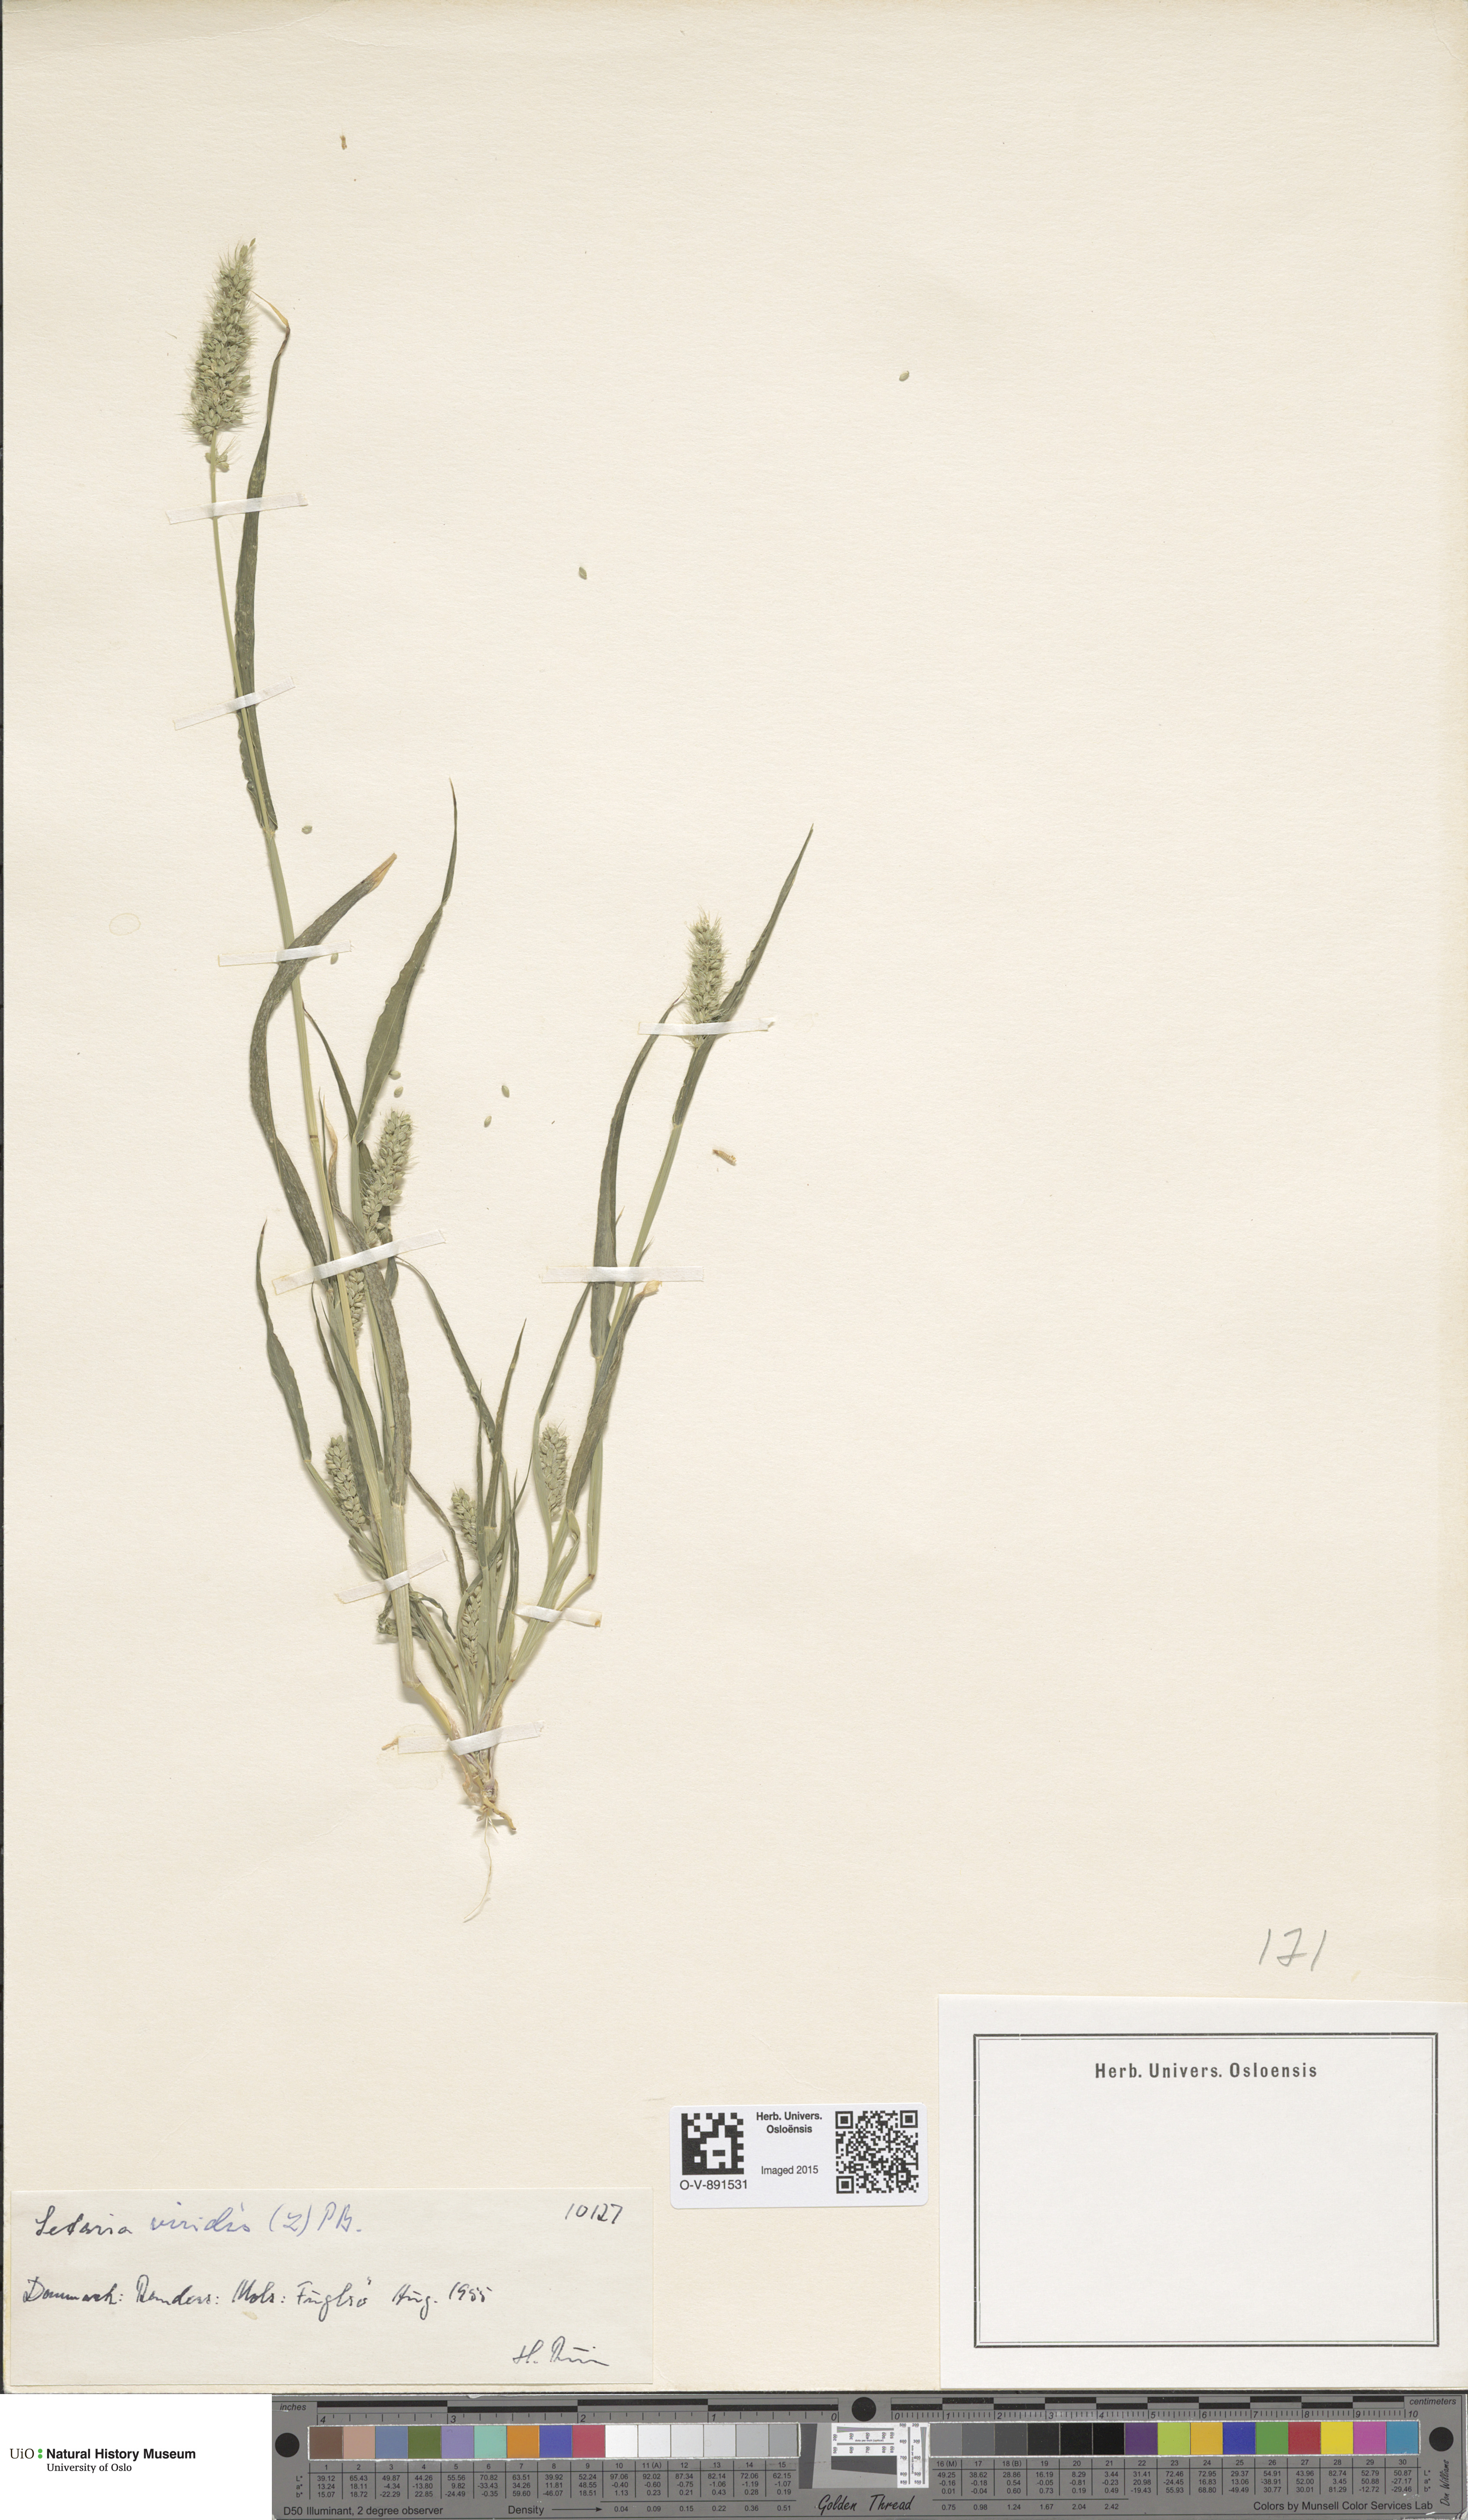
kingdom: Plantae
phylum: Tracheophyta
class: Liliopsida
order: Poales
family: Poaceae
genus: Setaria
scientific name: Setaria viridis
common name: Green bristlegrass
